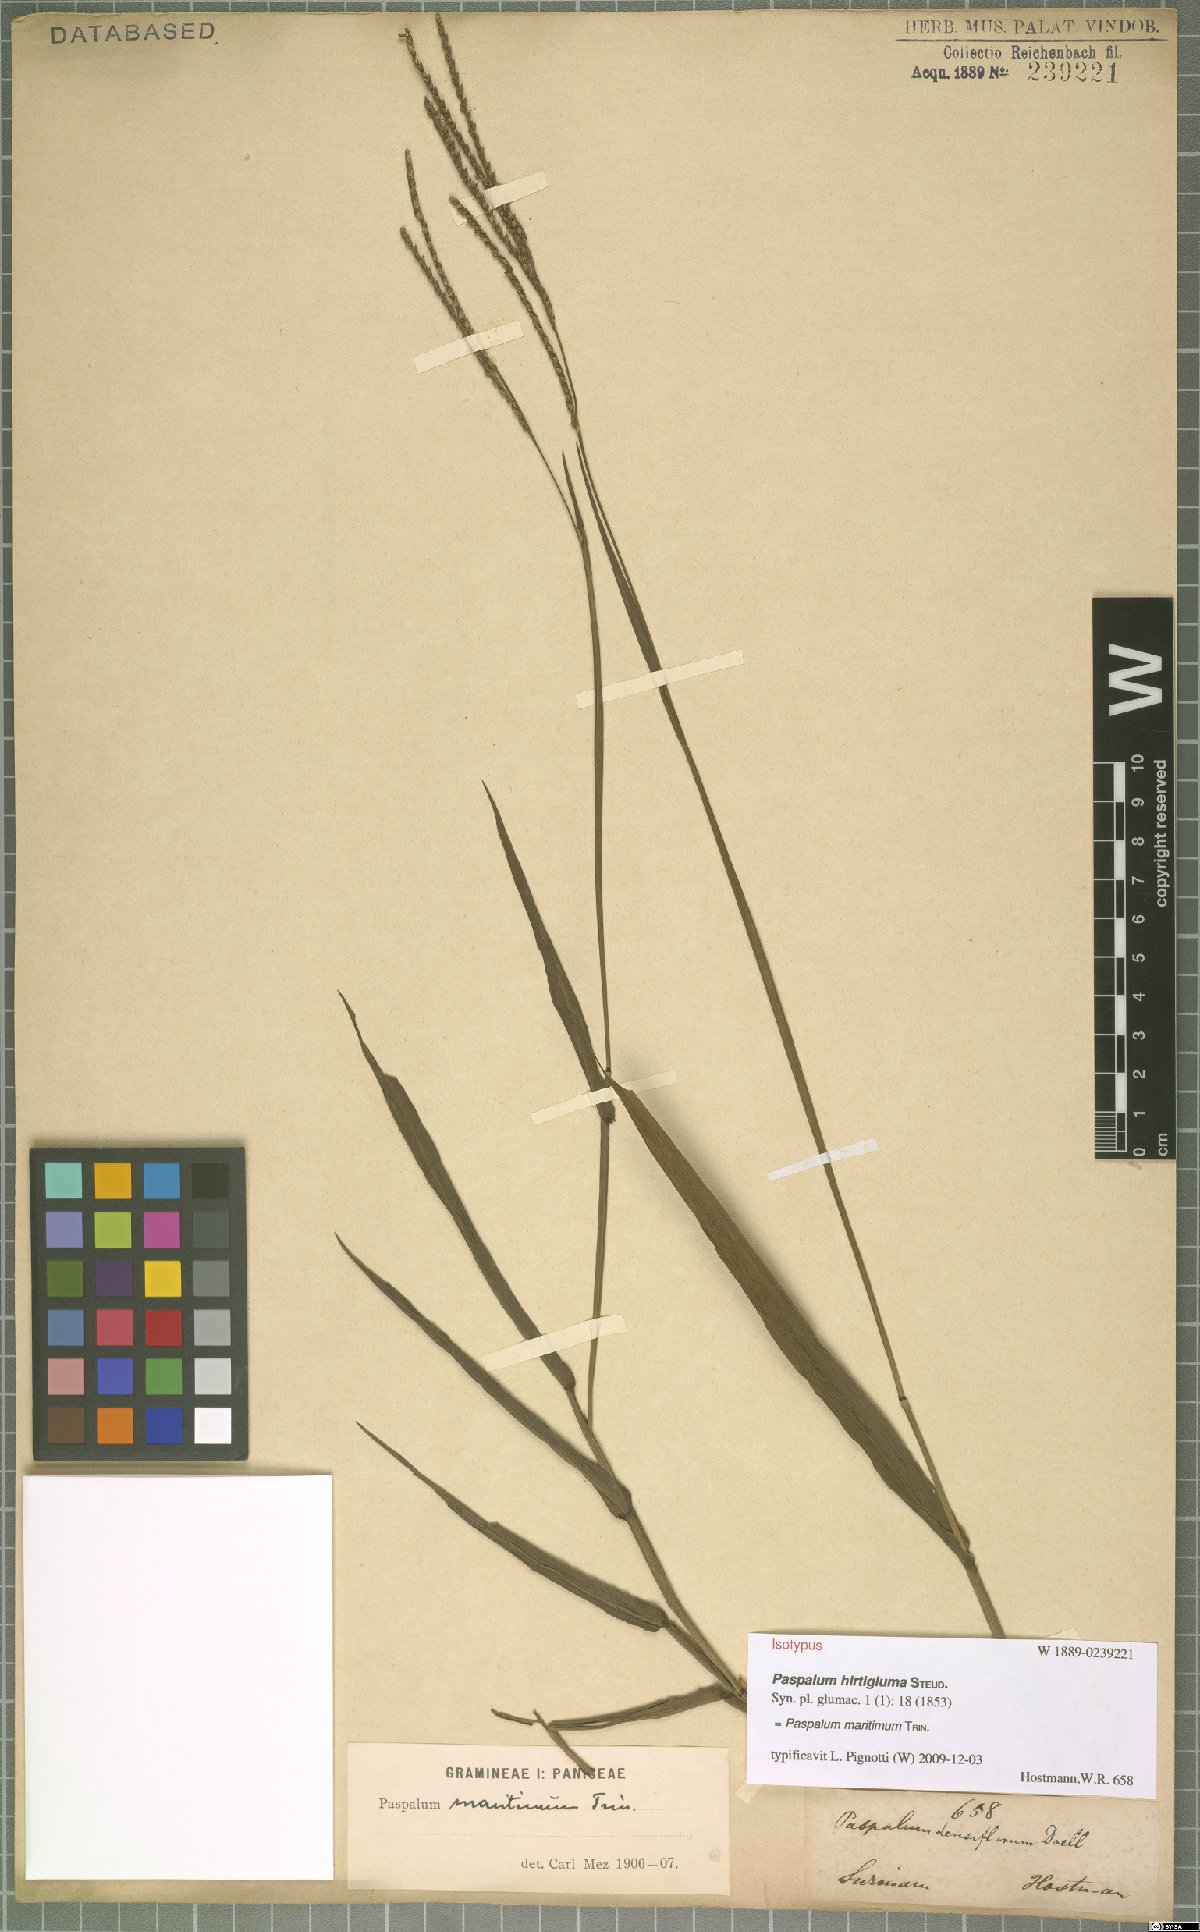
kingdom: Plantae
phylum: Tracheophyta
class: Liliopsida
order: Poales
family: Poaceae
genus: Paspalum
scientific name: Paspalum maritimum
